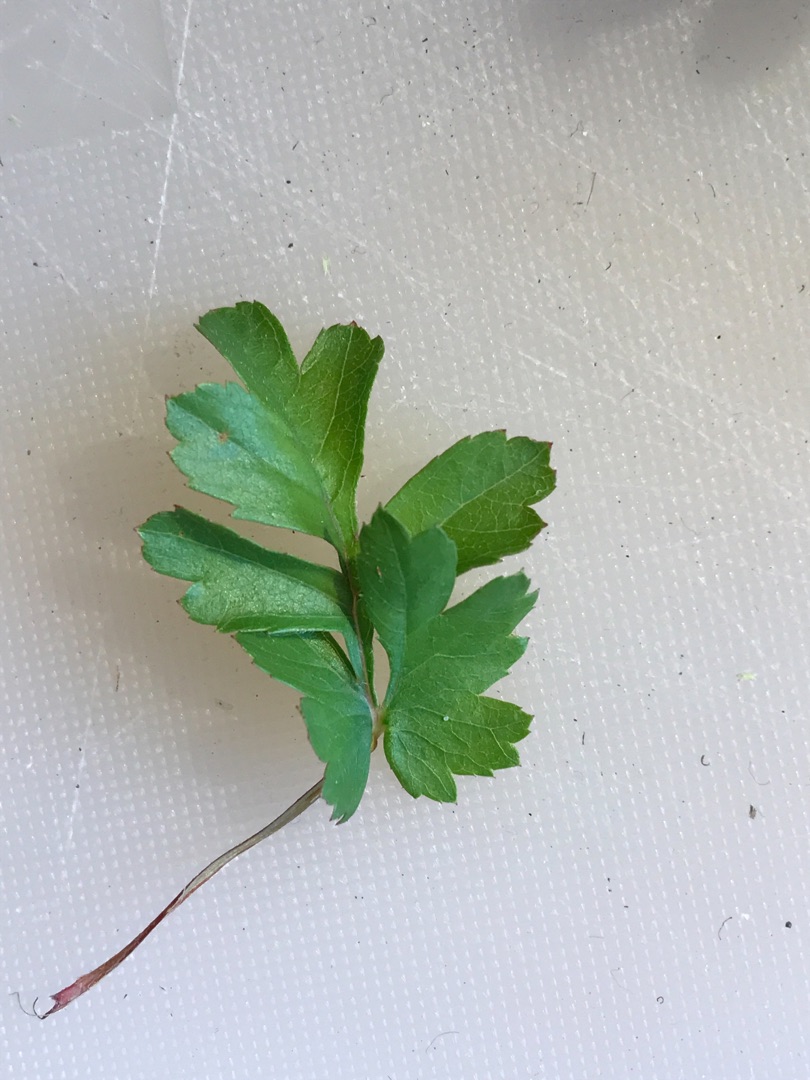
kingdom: Plantae
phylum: Tracheophyta
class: Magnoliopsida
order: Rosales
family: Rosaceae
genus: Crataegus
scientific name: Crataegus monogyna
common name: Engriflet hvidtjørn
